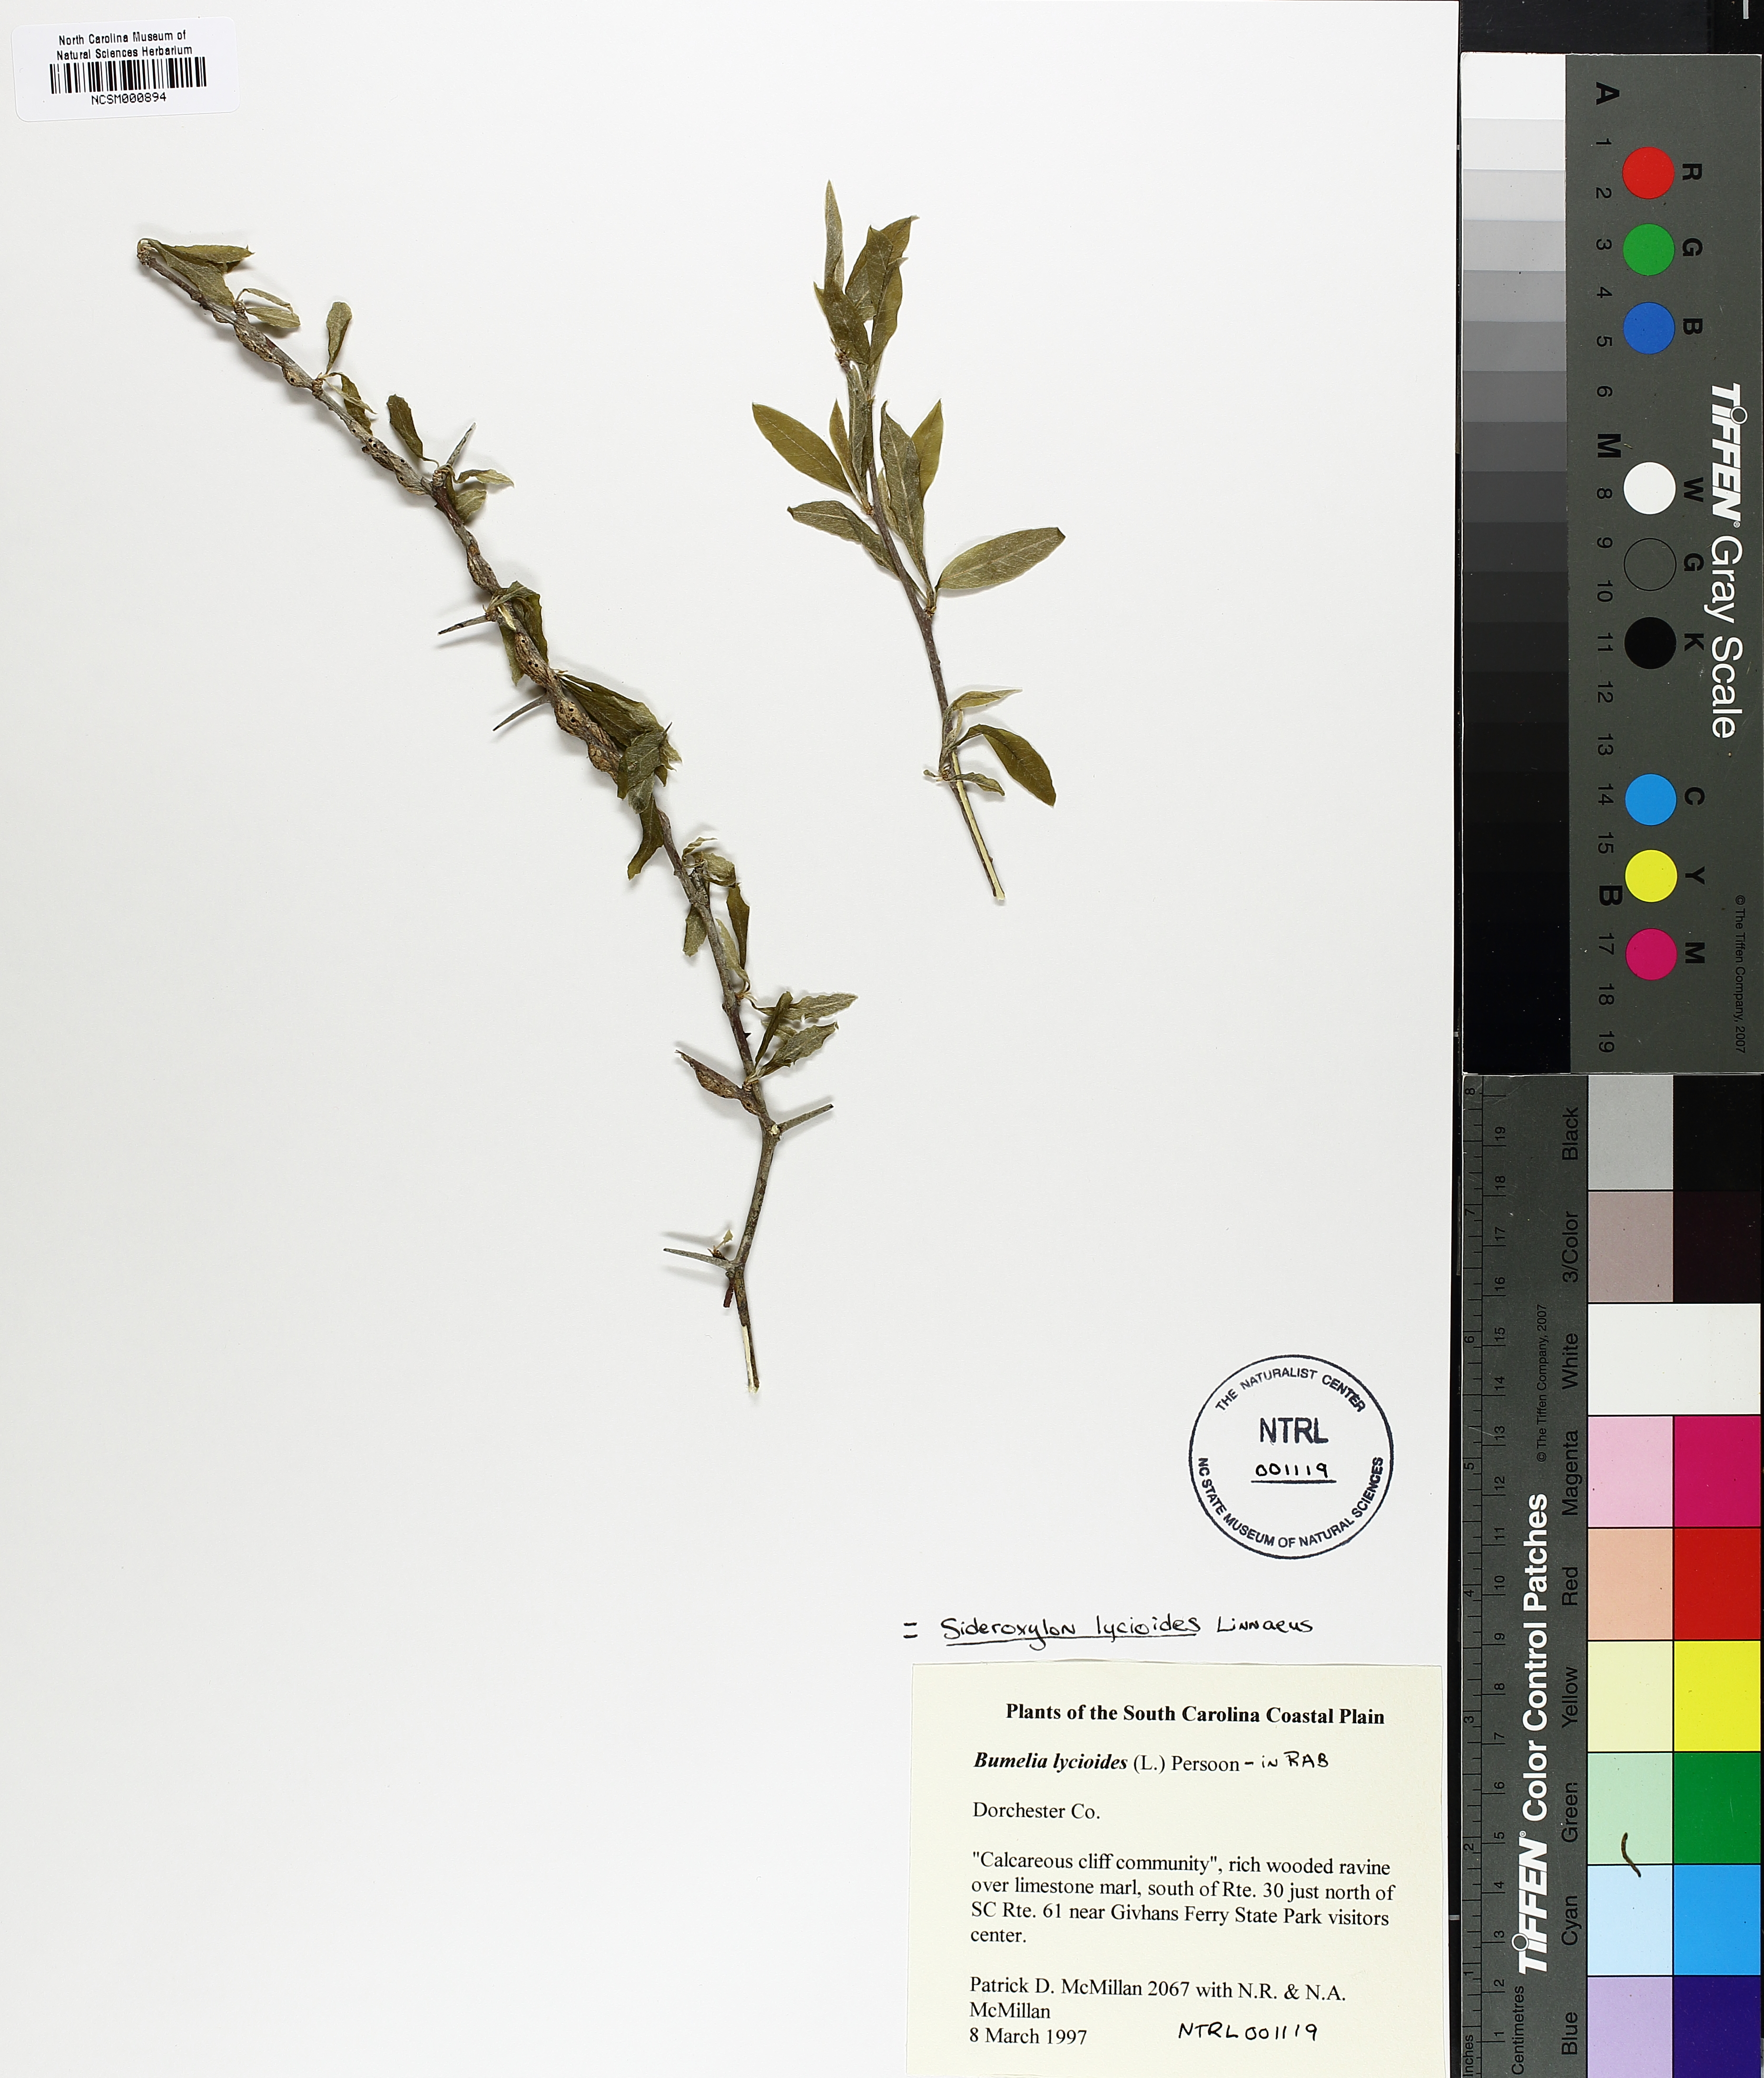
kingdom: Plantae
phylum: Tracheophyta
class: Magnoliopsida
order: Ericales
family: Sapotaceae
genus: Sideroxylon
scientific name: Sideroxylon lycioides
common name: Buckthorn bumelia
